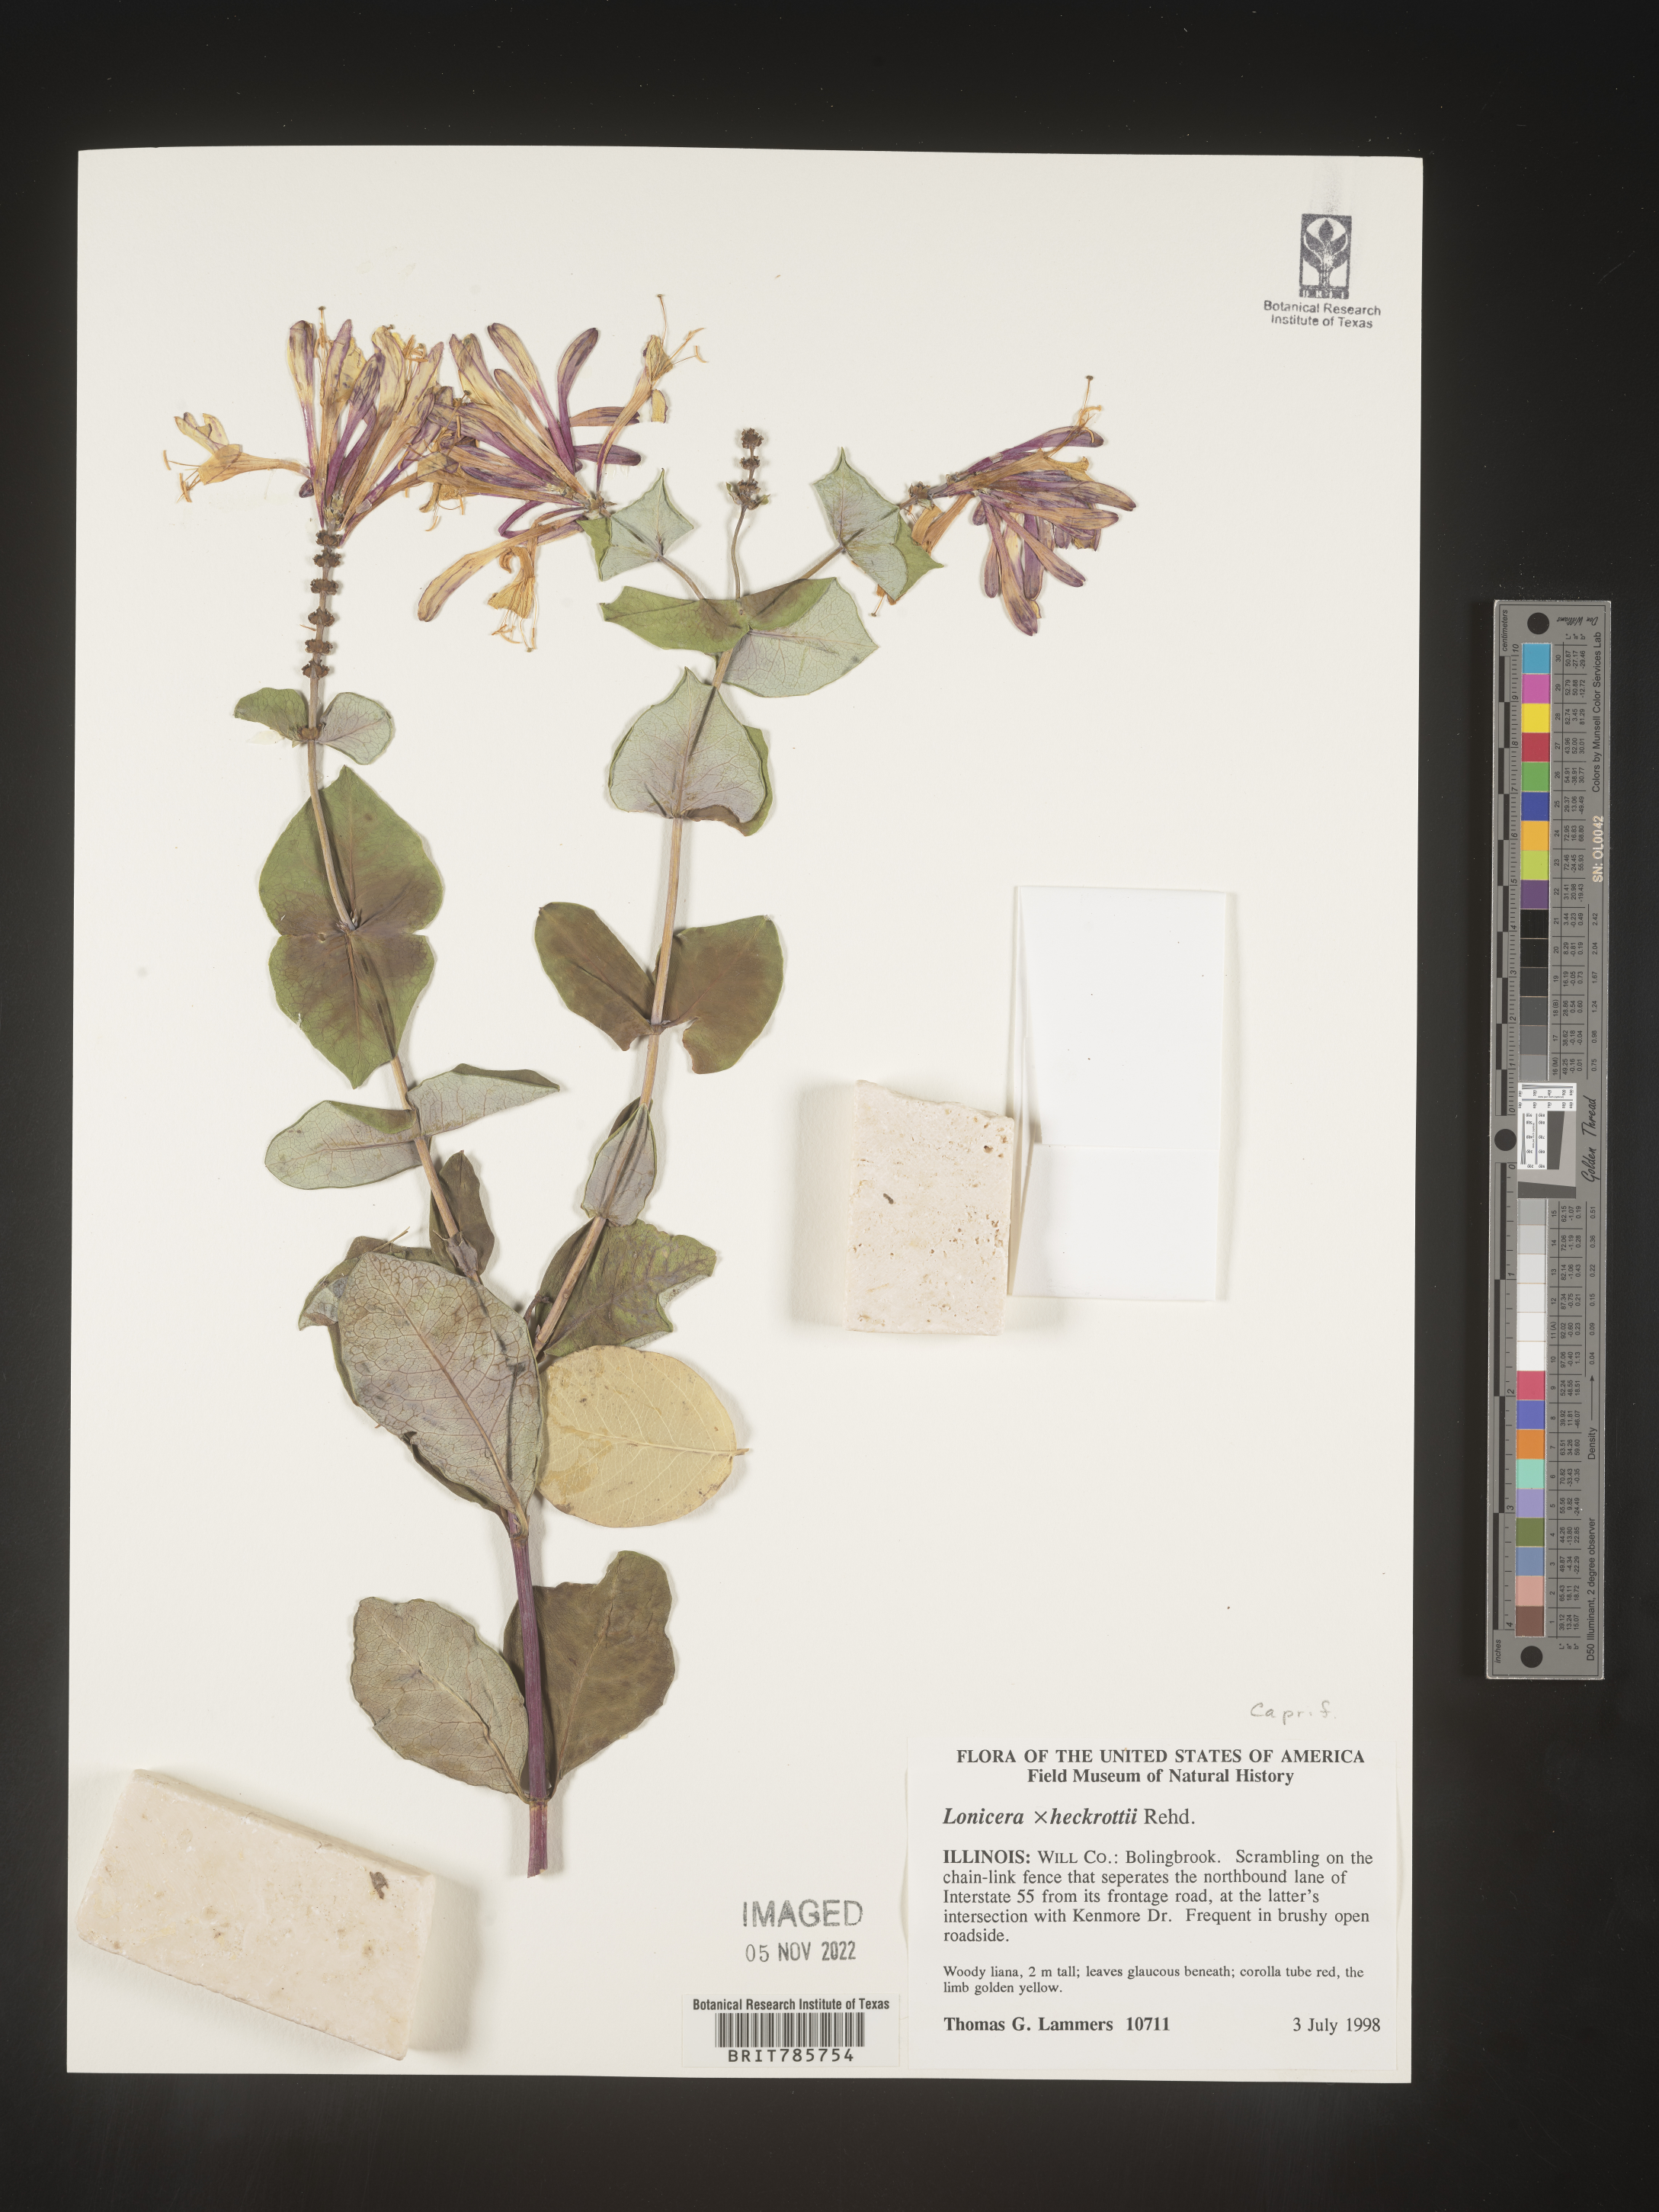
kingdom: Plantae
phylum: Tracheophyta
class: Magnoliopsida
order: Dipsacales
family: Caprifoliaceae
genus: Lonicera
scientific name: Lonicera
